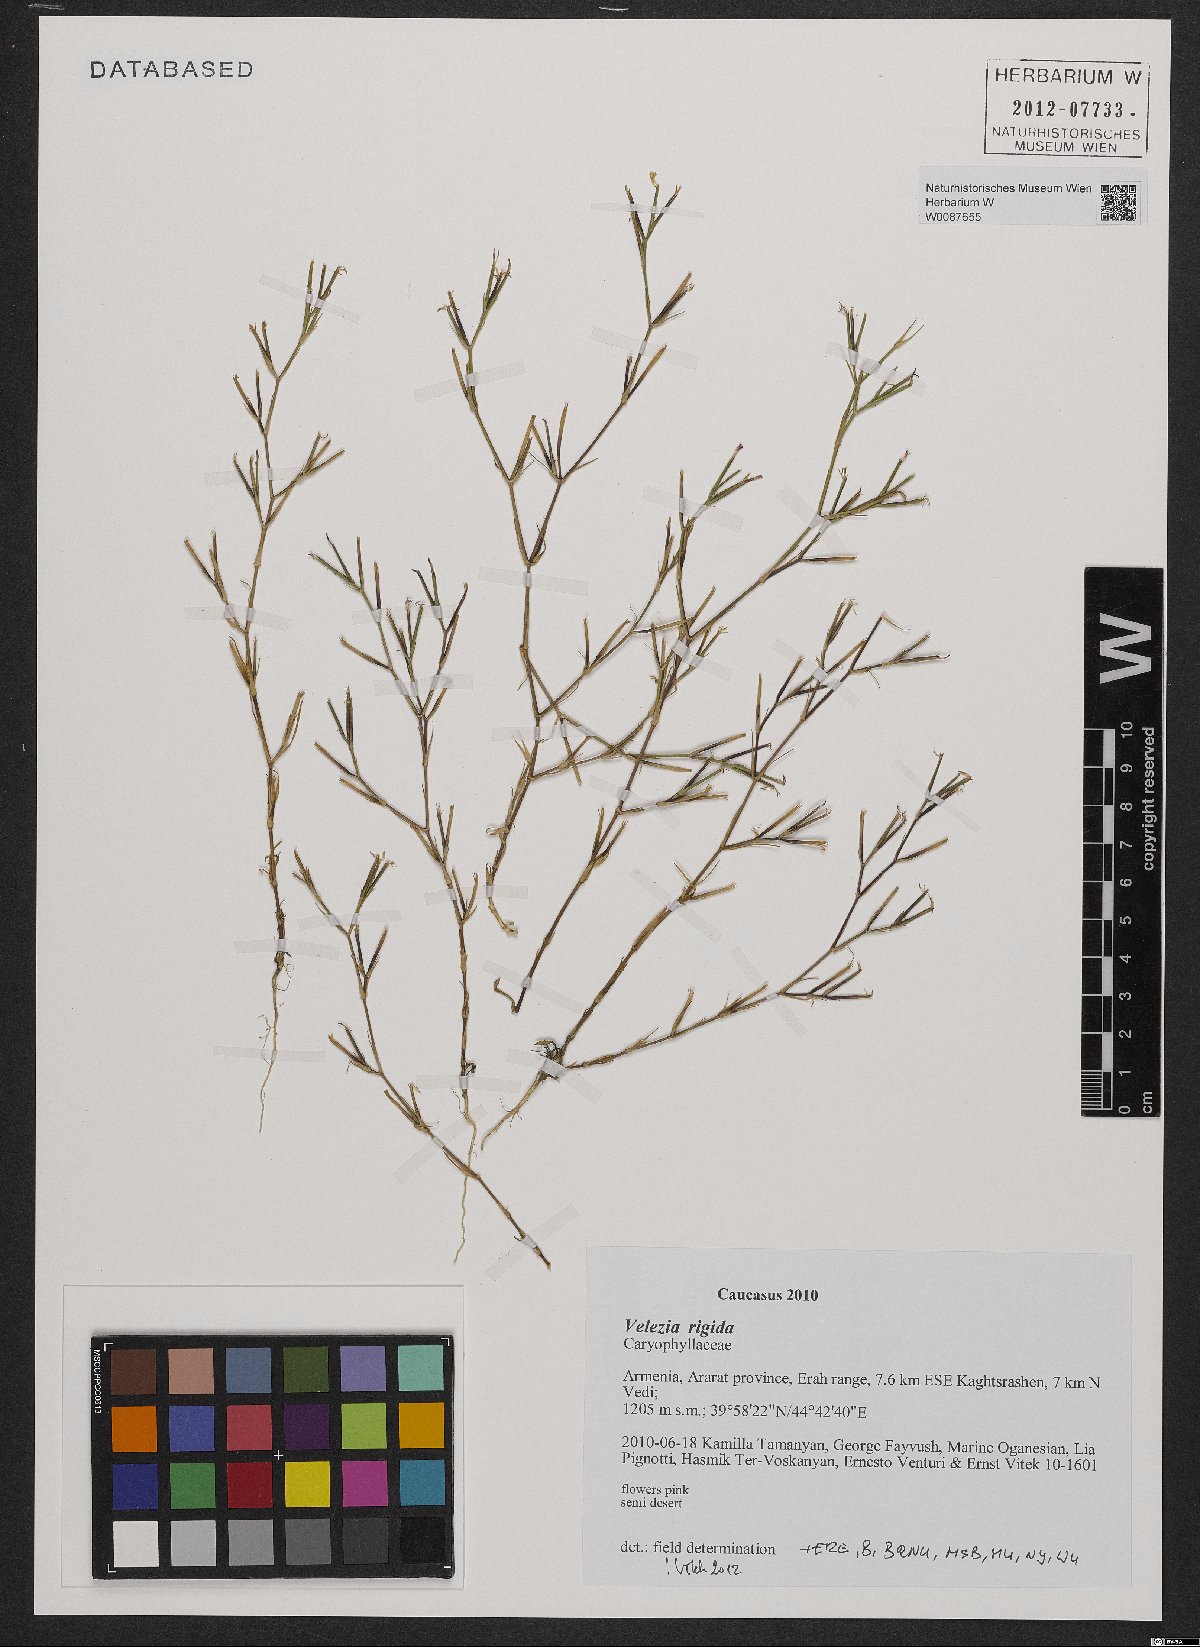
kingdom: Plantae
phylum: Tracheophyta
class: Magnoliopsida
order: Caryophyllales
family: Caryophyllaceae
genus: Dianthus
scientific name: Dianthus nudiflorus
